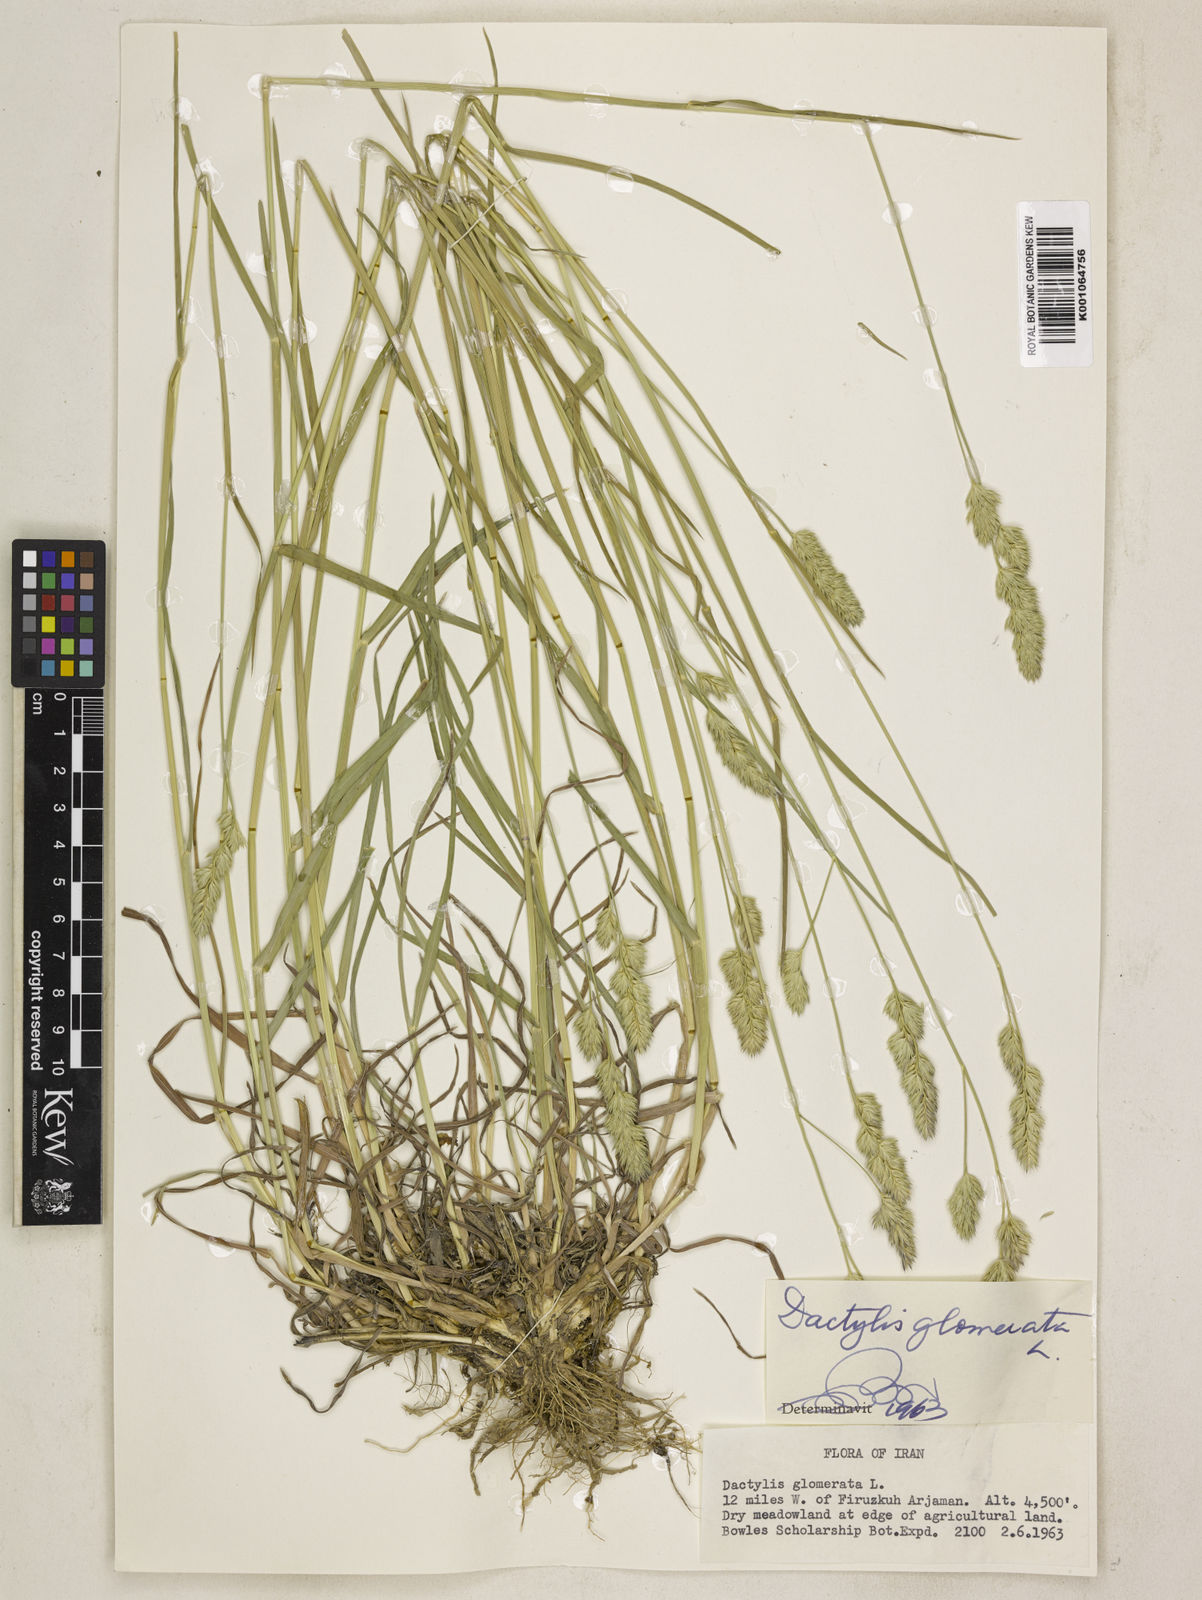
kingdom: Plantae
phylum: Tracheophyta
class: Liliopsida
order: Poales
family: Poaceae
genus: Dactylis
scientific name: Dactylis glomerata
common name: Orchardgrass
